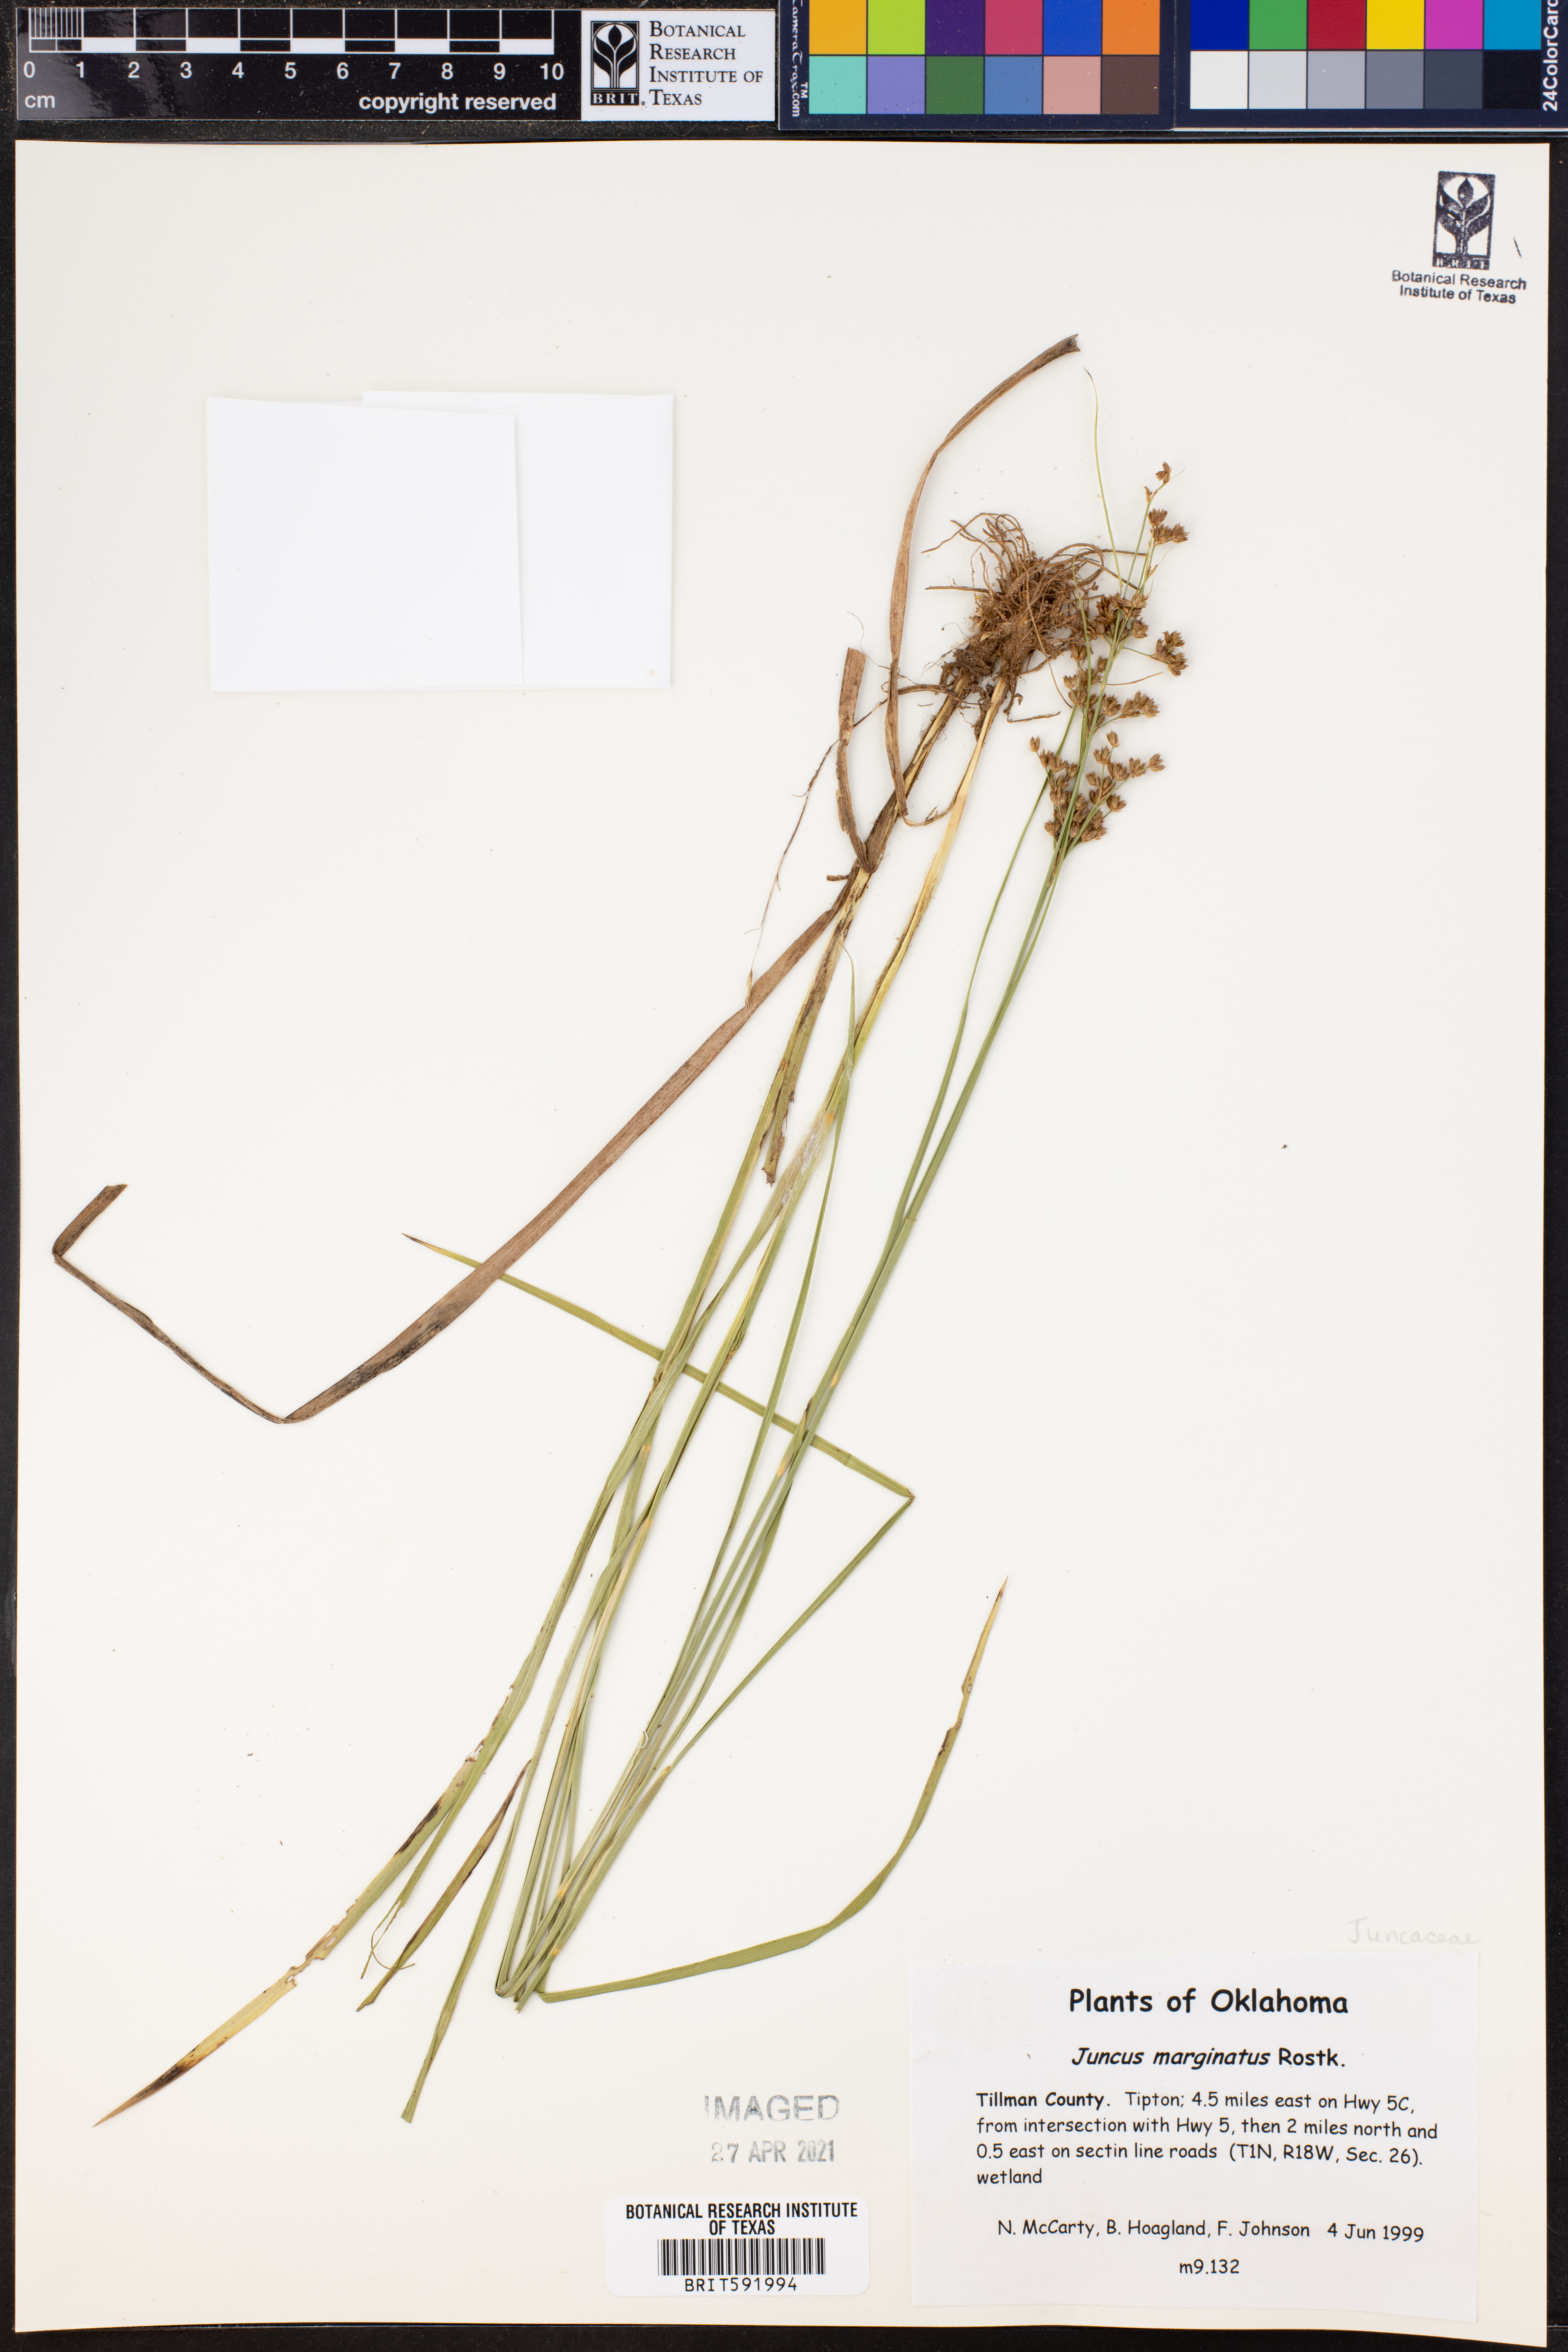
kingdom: Plantae
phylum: Tracheophyta
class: Liliopsida
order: Poales
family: Juncaceae
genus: Juncus
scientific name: Juncus marginatus
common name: Grass-leaf rush
